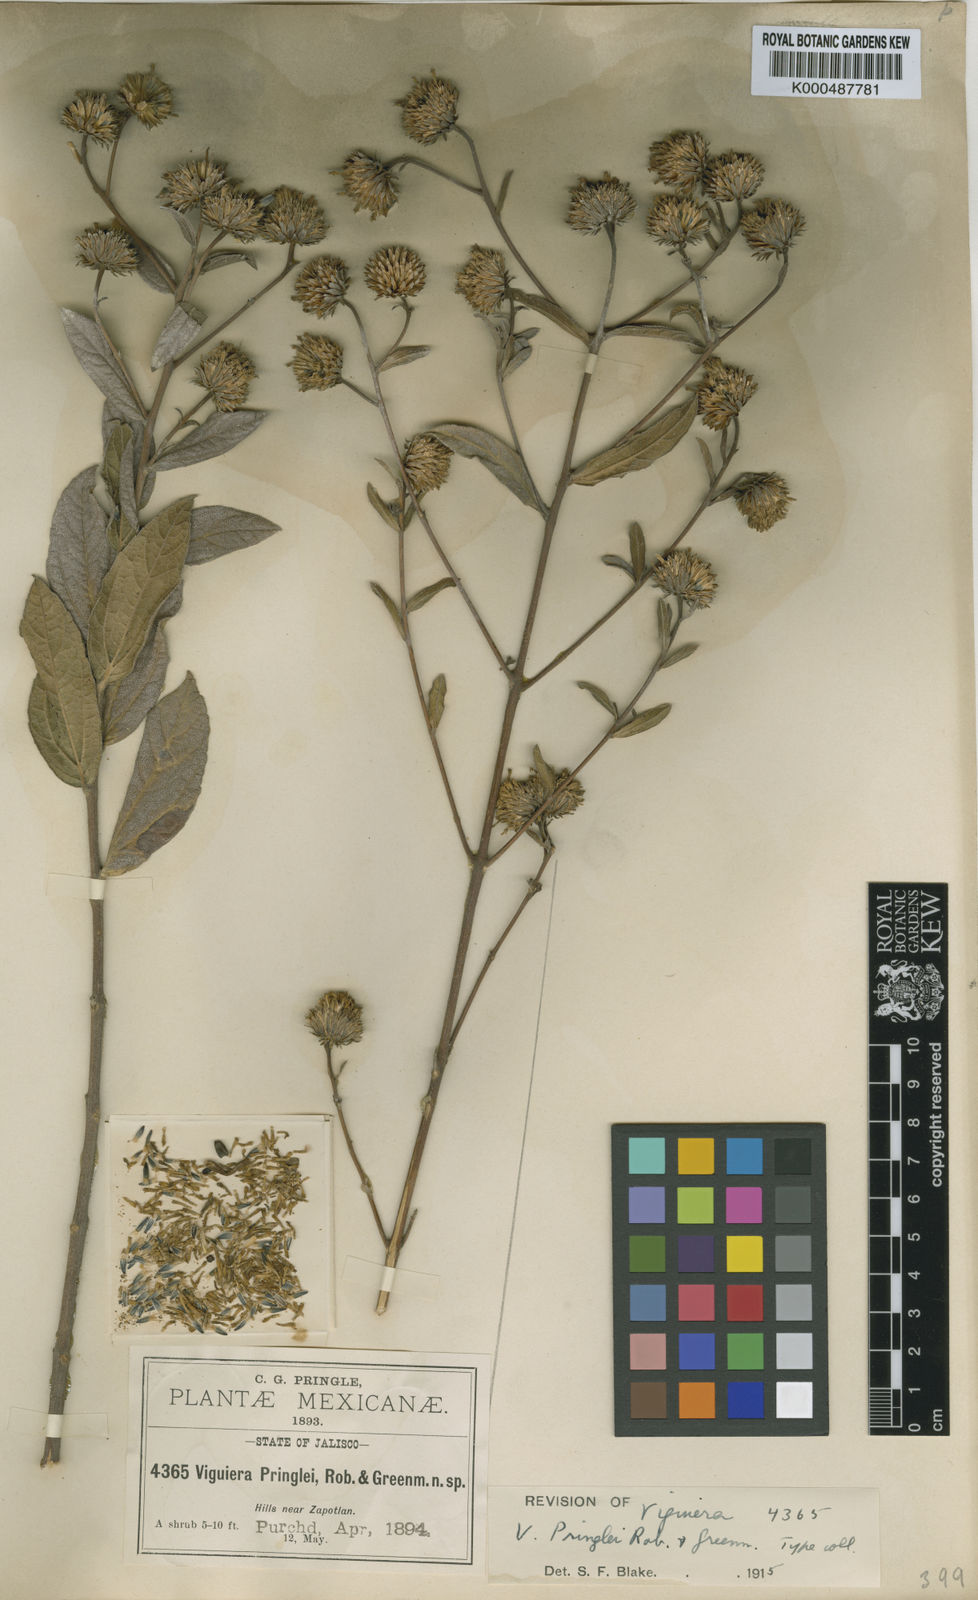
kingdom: Plantae
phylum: Tracheophyta
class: Magnoliopsida
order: Asterales
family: Asteraceae
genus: Aldama
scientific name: Aldama pringlei
